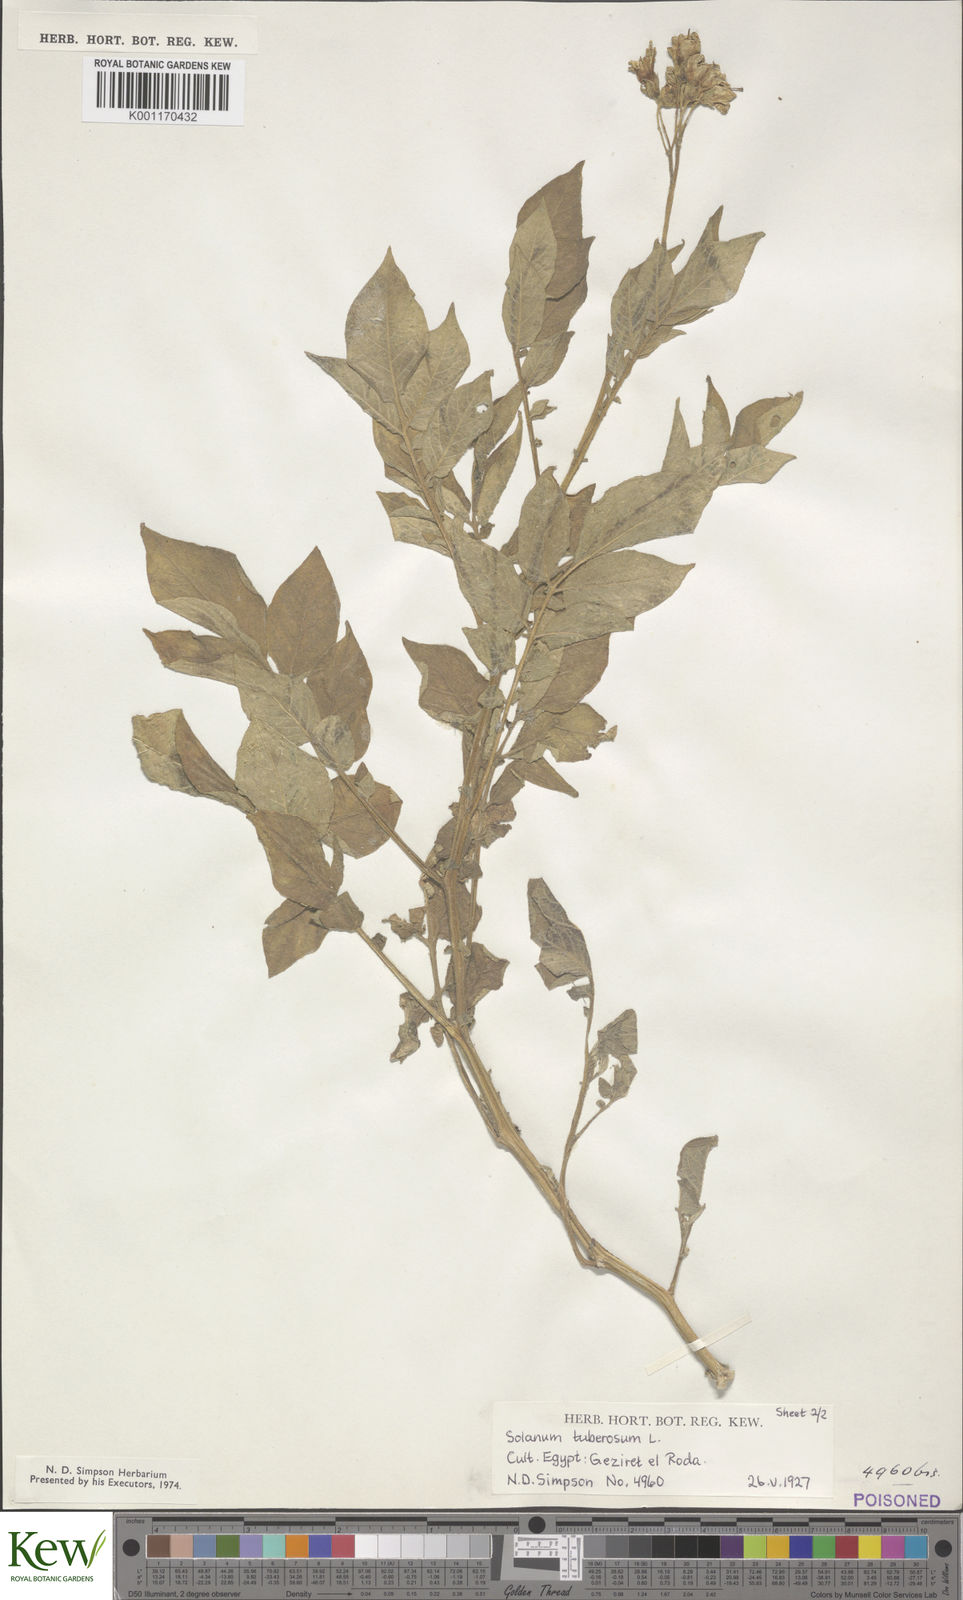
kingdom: Plantae
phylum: Tracheophyta
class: Magnoliopsida
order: Solanales
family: Solanaceae
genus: Solanum
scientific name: Solanum tuberosum
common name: Potato
